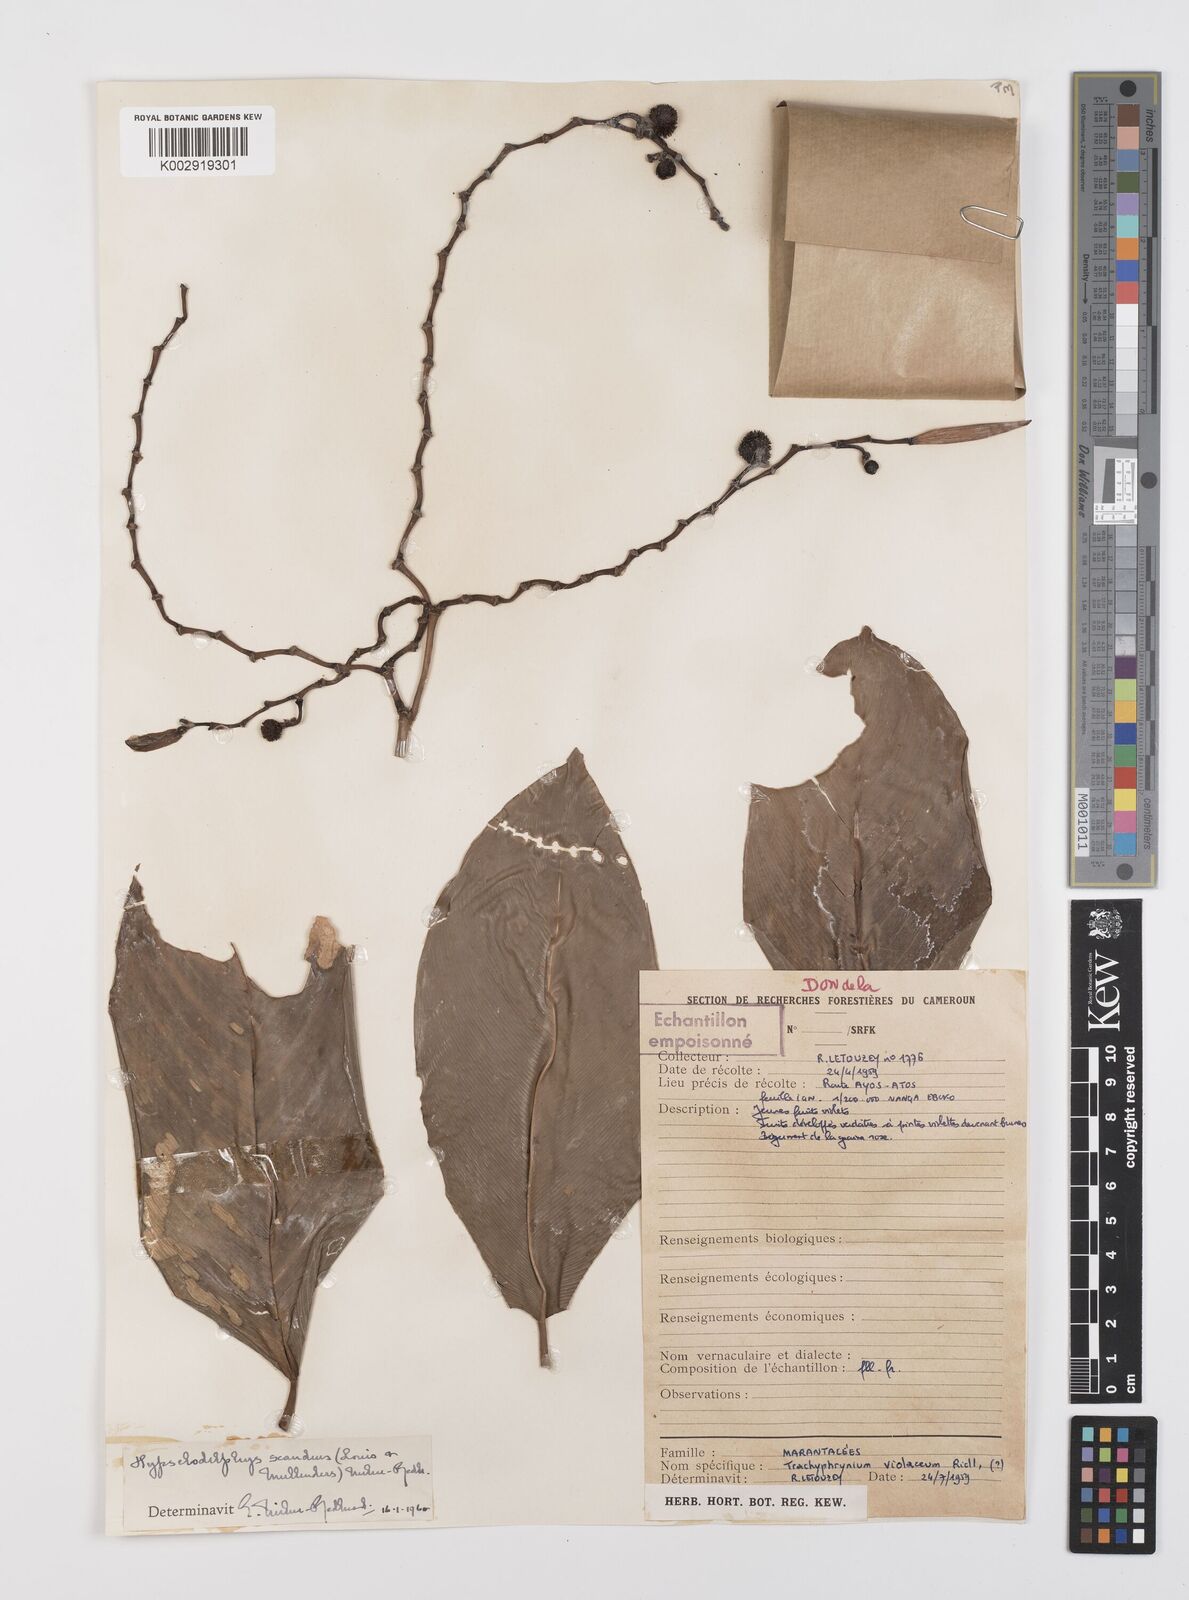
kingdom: Plantae
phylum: Tracheophyta
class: Liliopsida
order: Zingiberales
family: Marantaceae
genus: Hypselodelphys
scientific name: Hypselodelphys scandens
